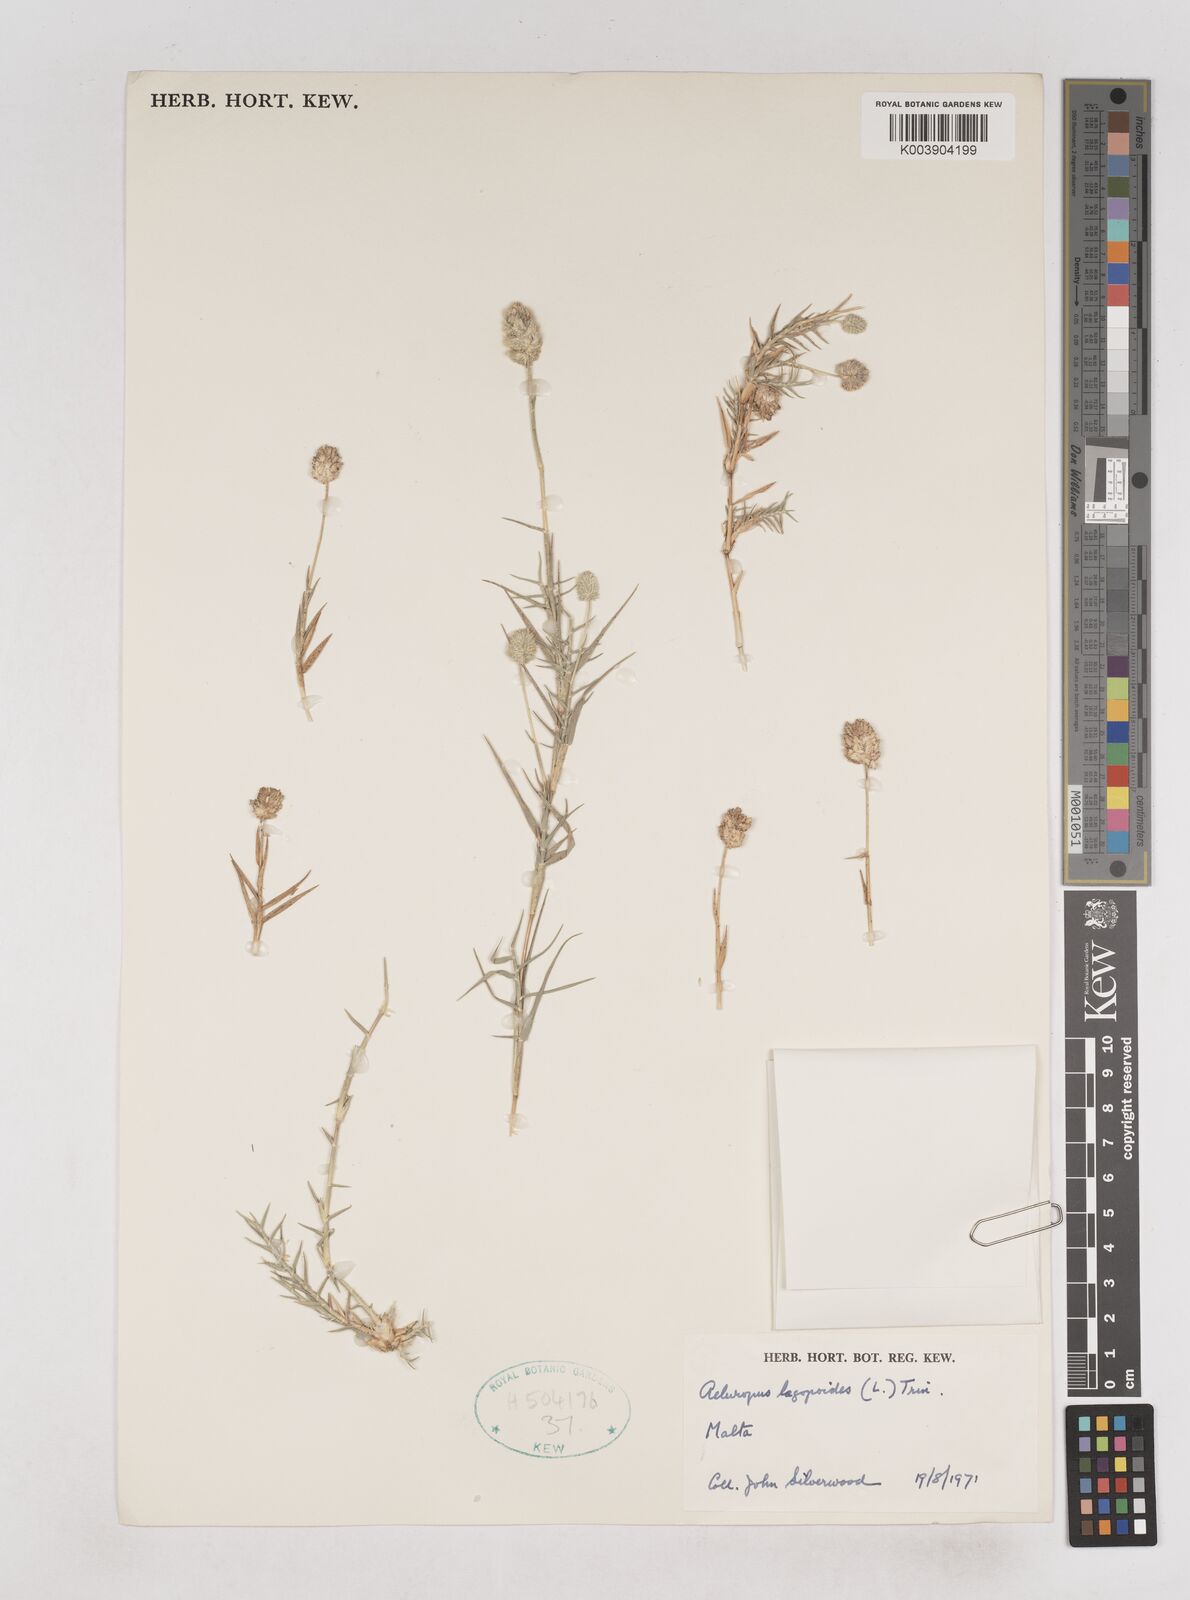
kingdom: Plantae
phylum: Tracheophyta
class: Liliopsida
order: Poales
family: Poaceae
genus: Aeluropus
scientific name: Aeluropus lagopoides
